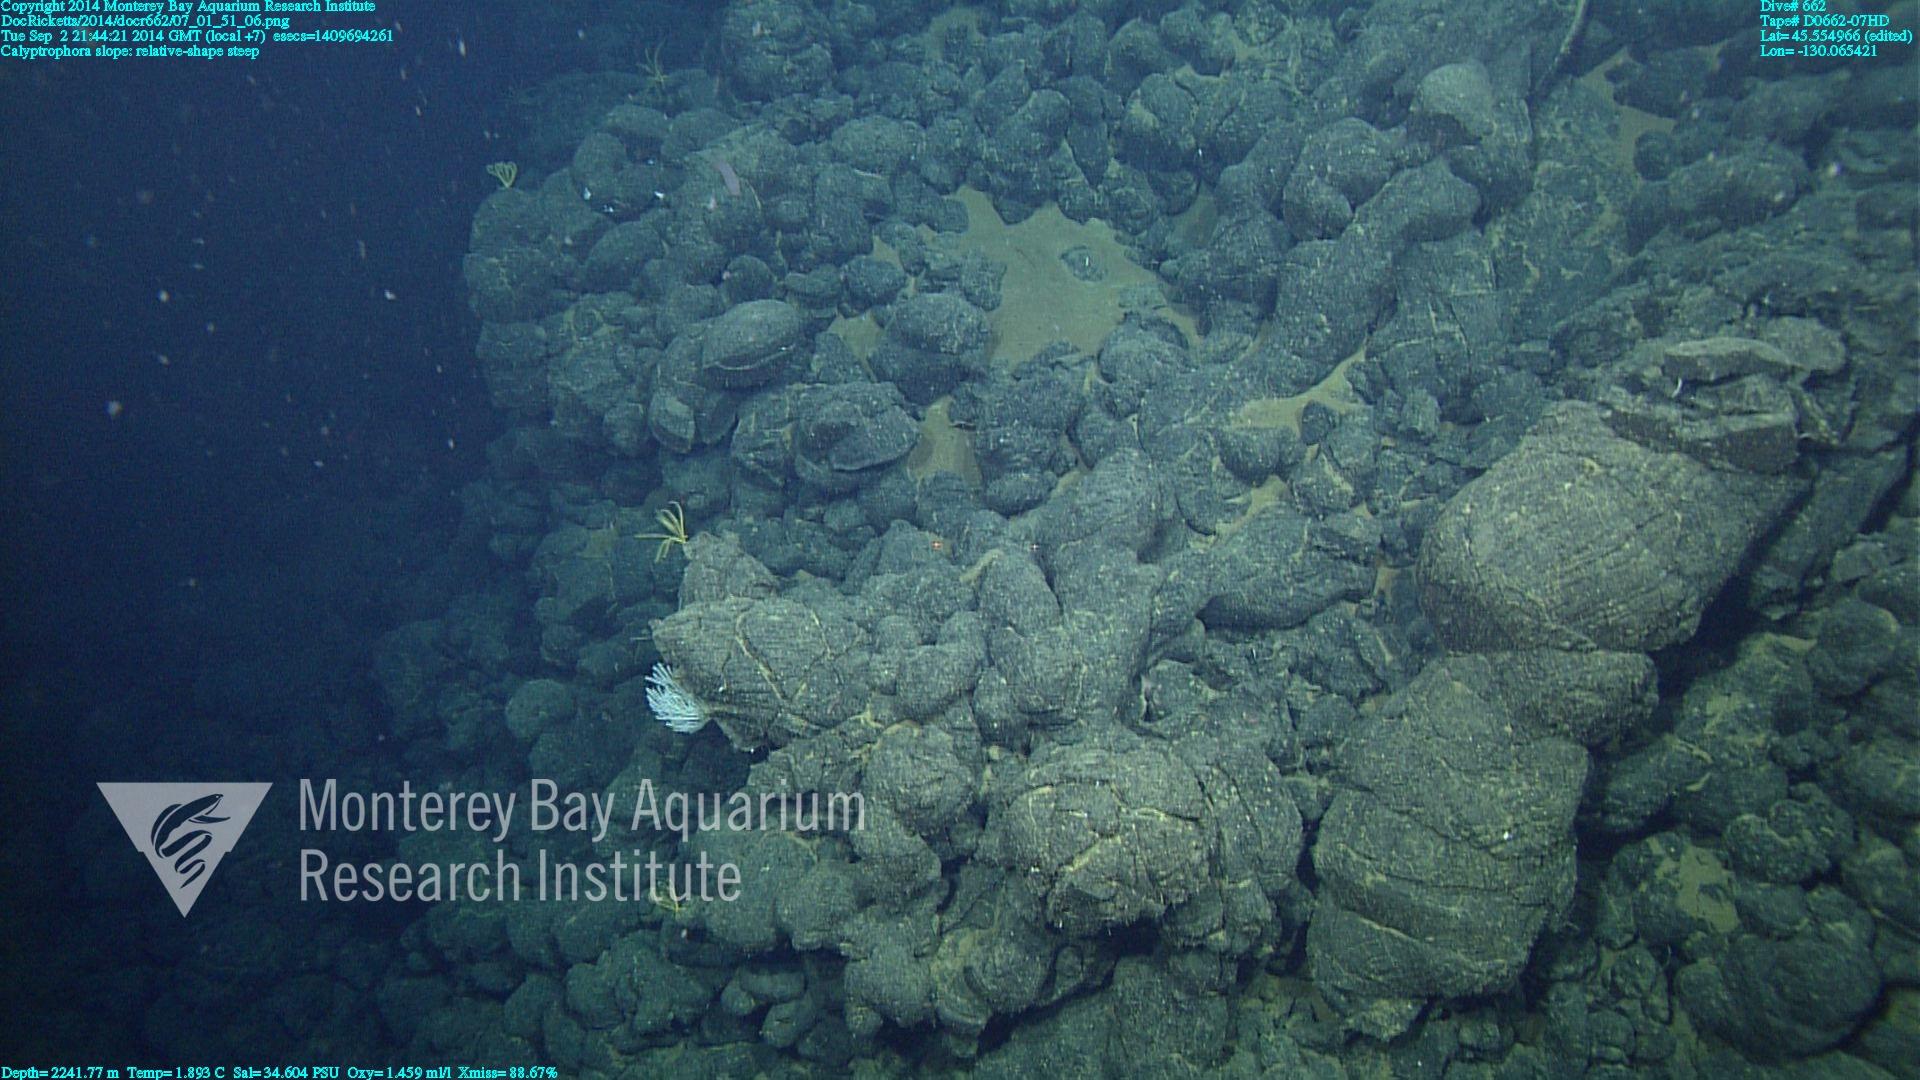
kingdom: Animalia
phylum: Cnidaria
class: Anthozoa
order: Scleralcyonacea
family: Primnoidae
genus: Calyptrophora
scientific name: Calyptrophora
